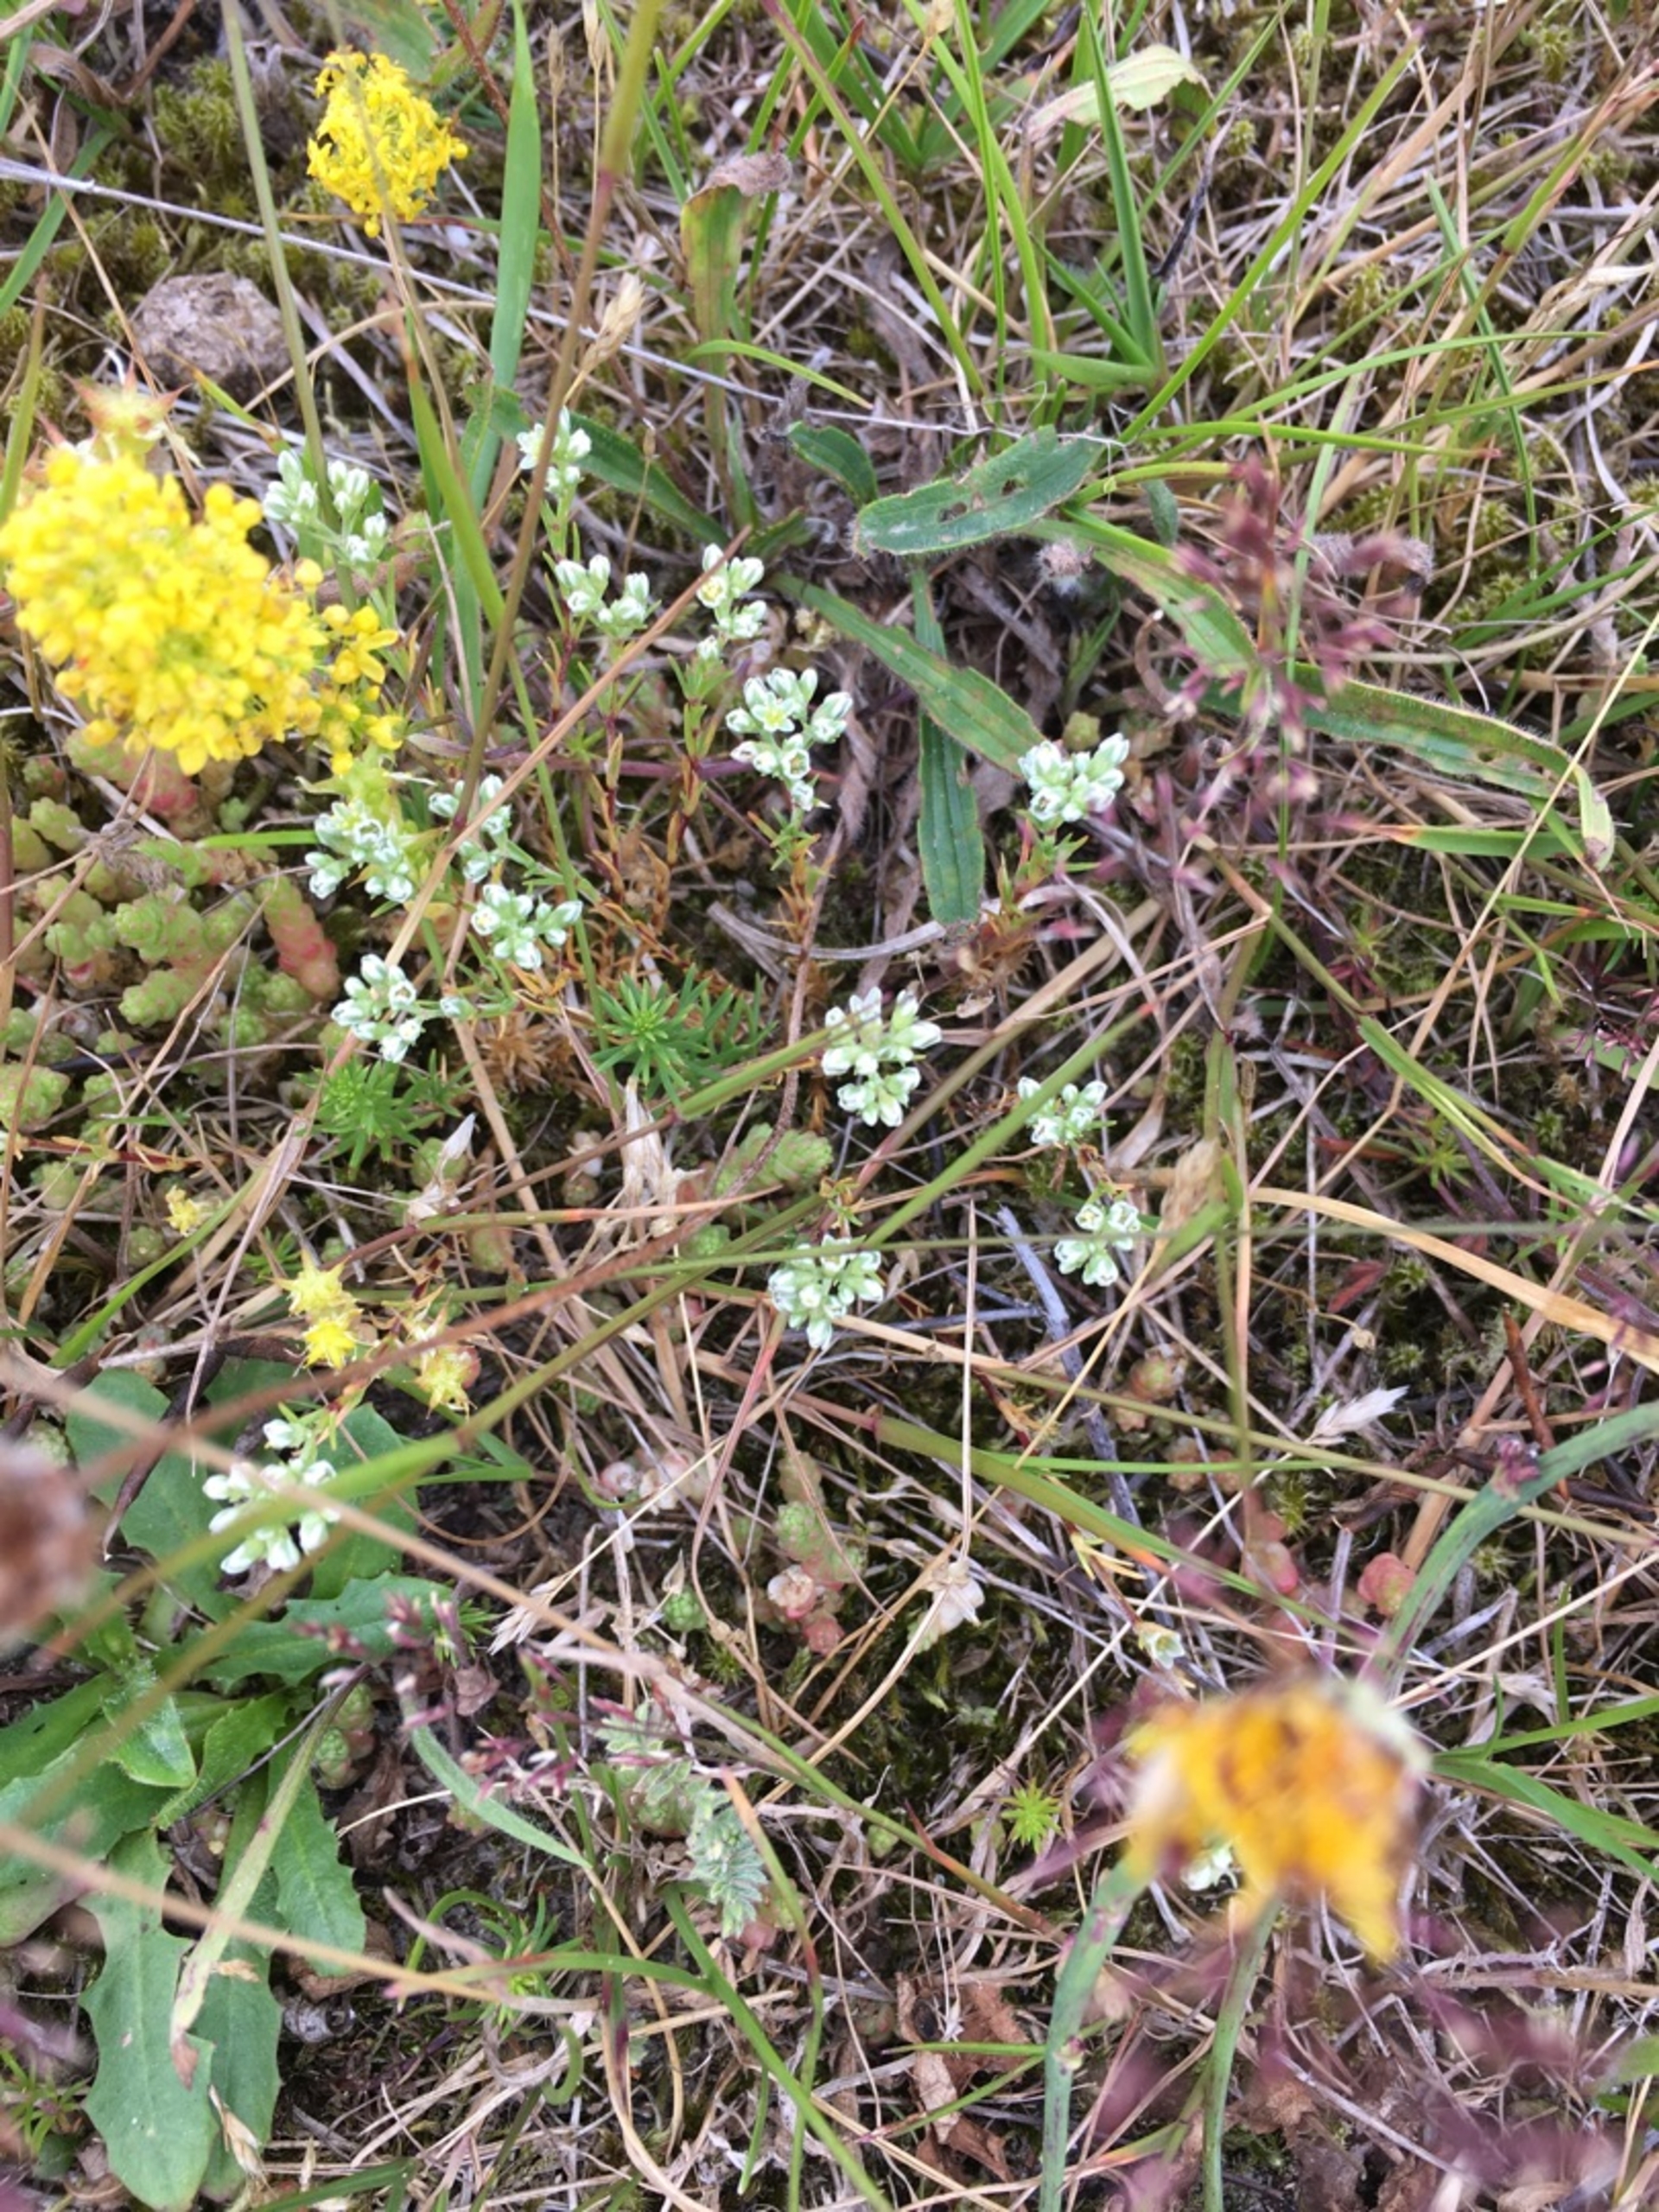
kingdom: Plantae
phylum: Tracheophyta
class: Magnoliopsida
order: Caryophyllales
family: Caryophyllaceae
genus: Scleranthus
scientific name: Scleranthus perennis
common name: Flerårig knavel
